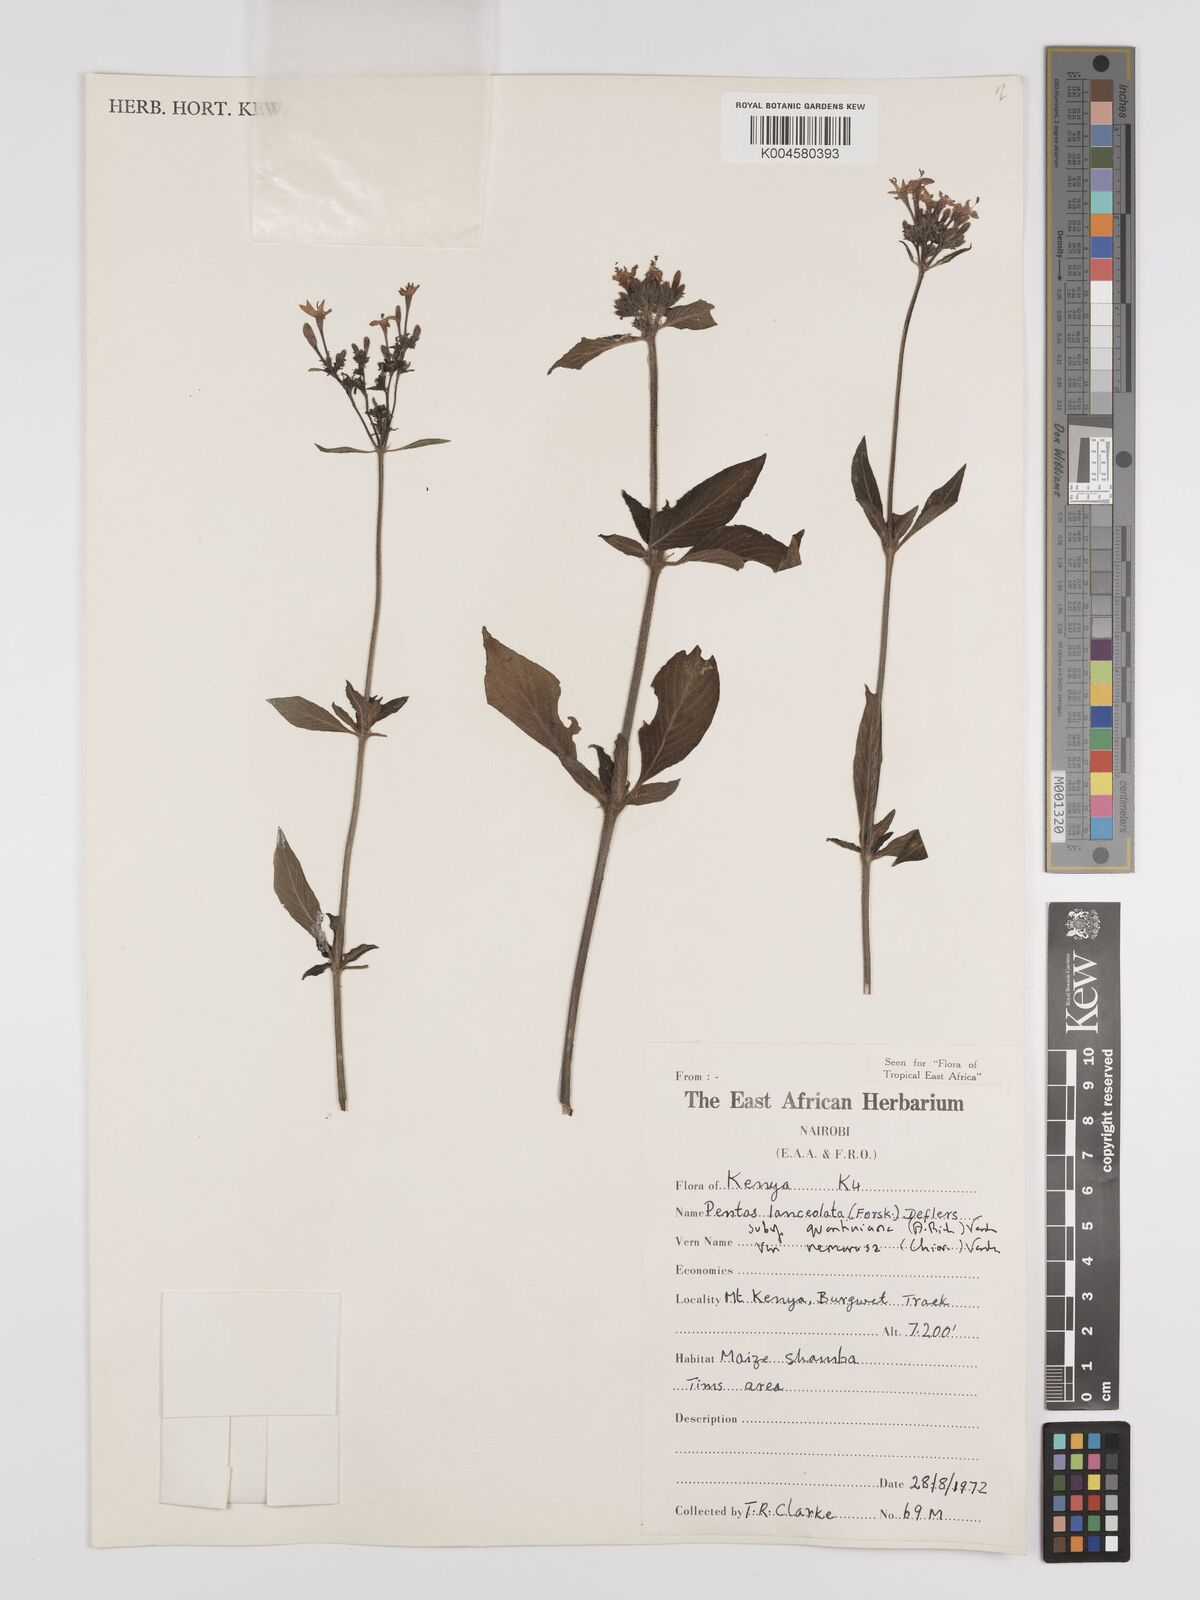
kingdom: Plantae
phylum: Tracheophyta
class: Magnoliopsida
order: Gentianales
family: Rubiaceae
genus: Pentas
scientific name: Pentas
